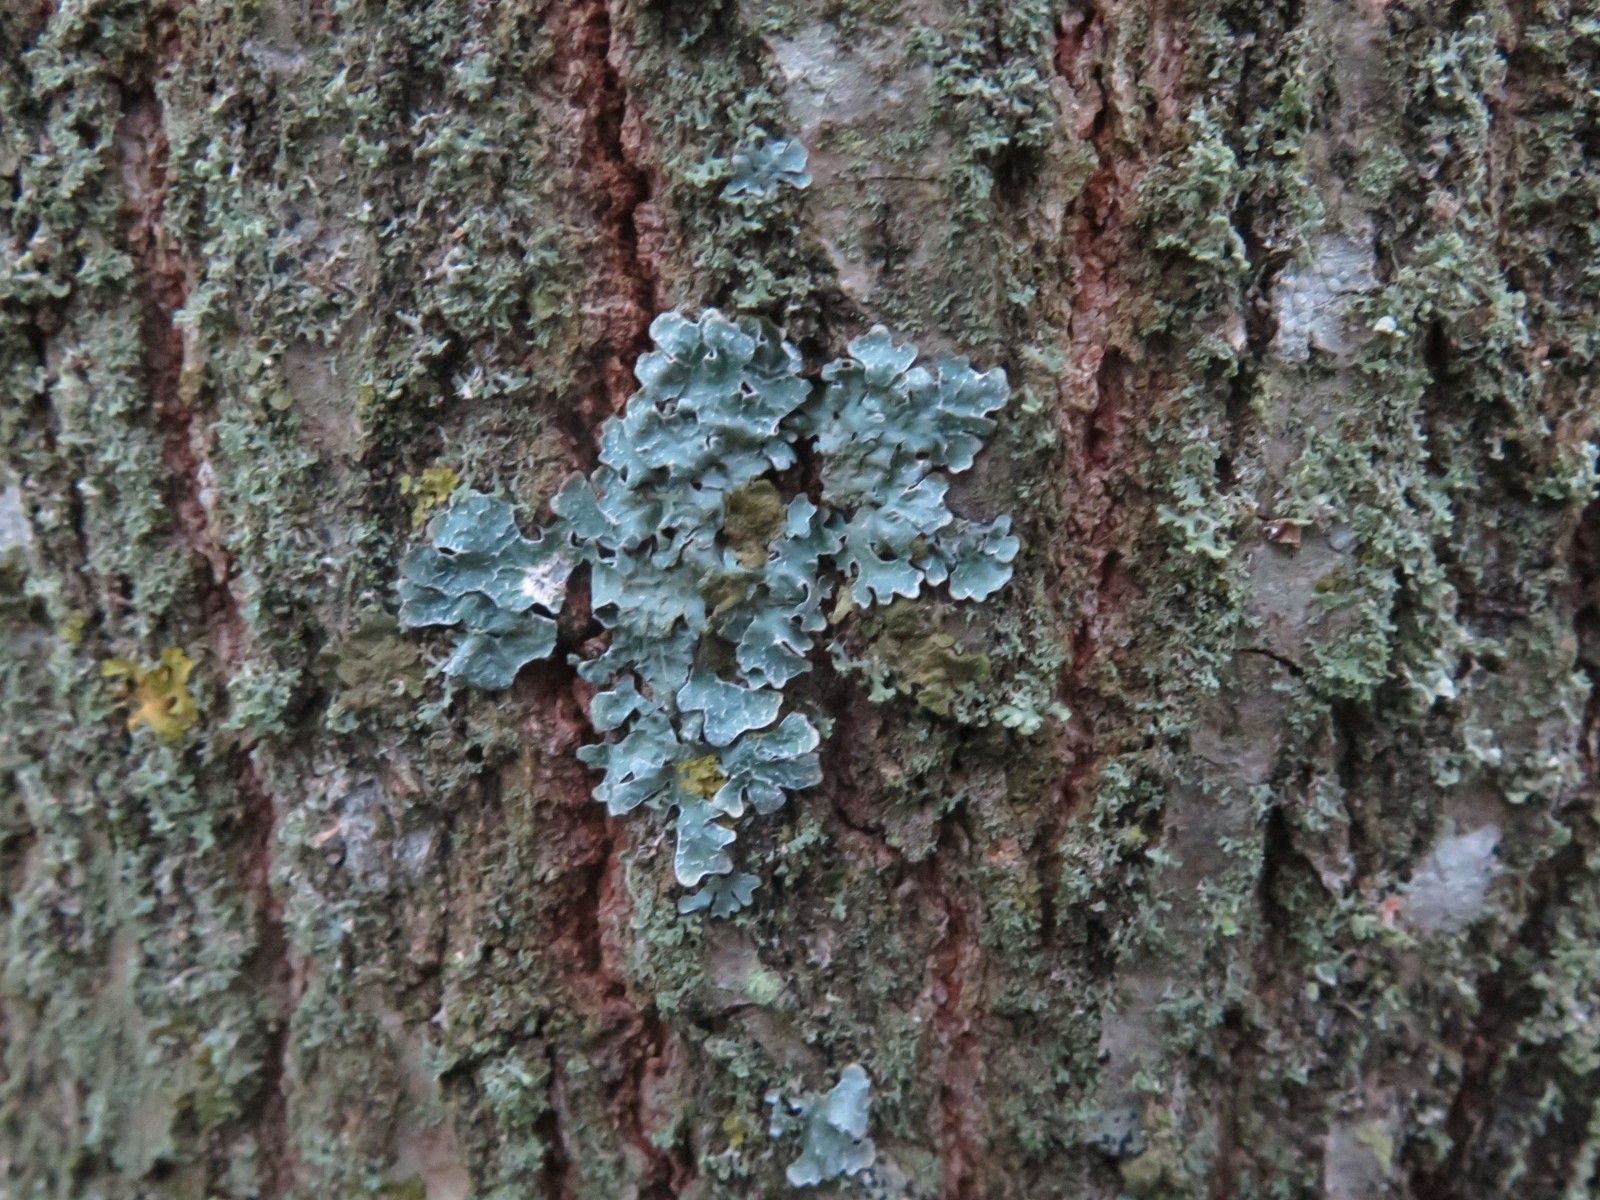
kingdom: Fungi
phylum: Ascomycota
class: Lecanoromycetes
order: Lecanorales
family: Parmeliaceae
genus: Parmelia
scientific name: Parmelia sulcata
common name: rynket skållav
